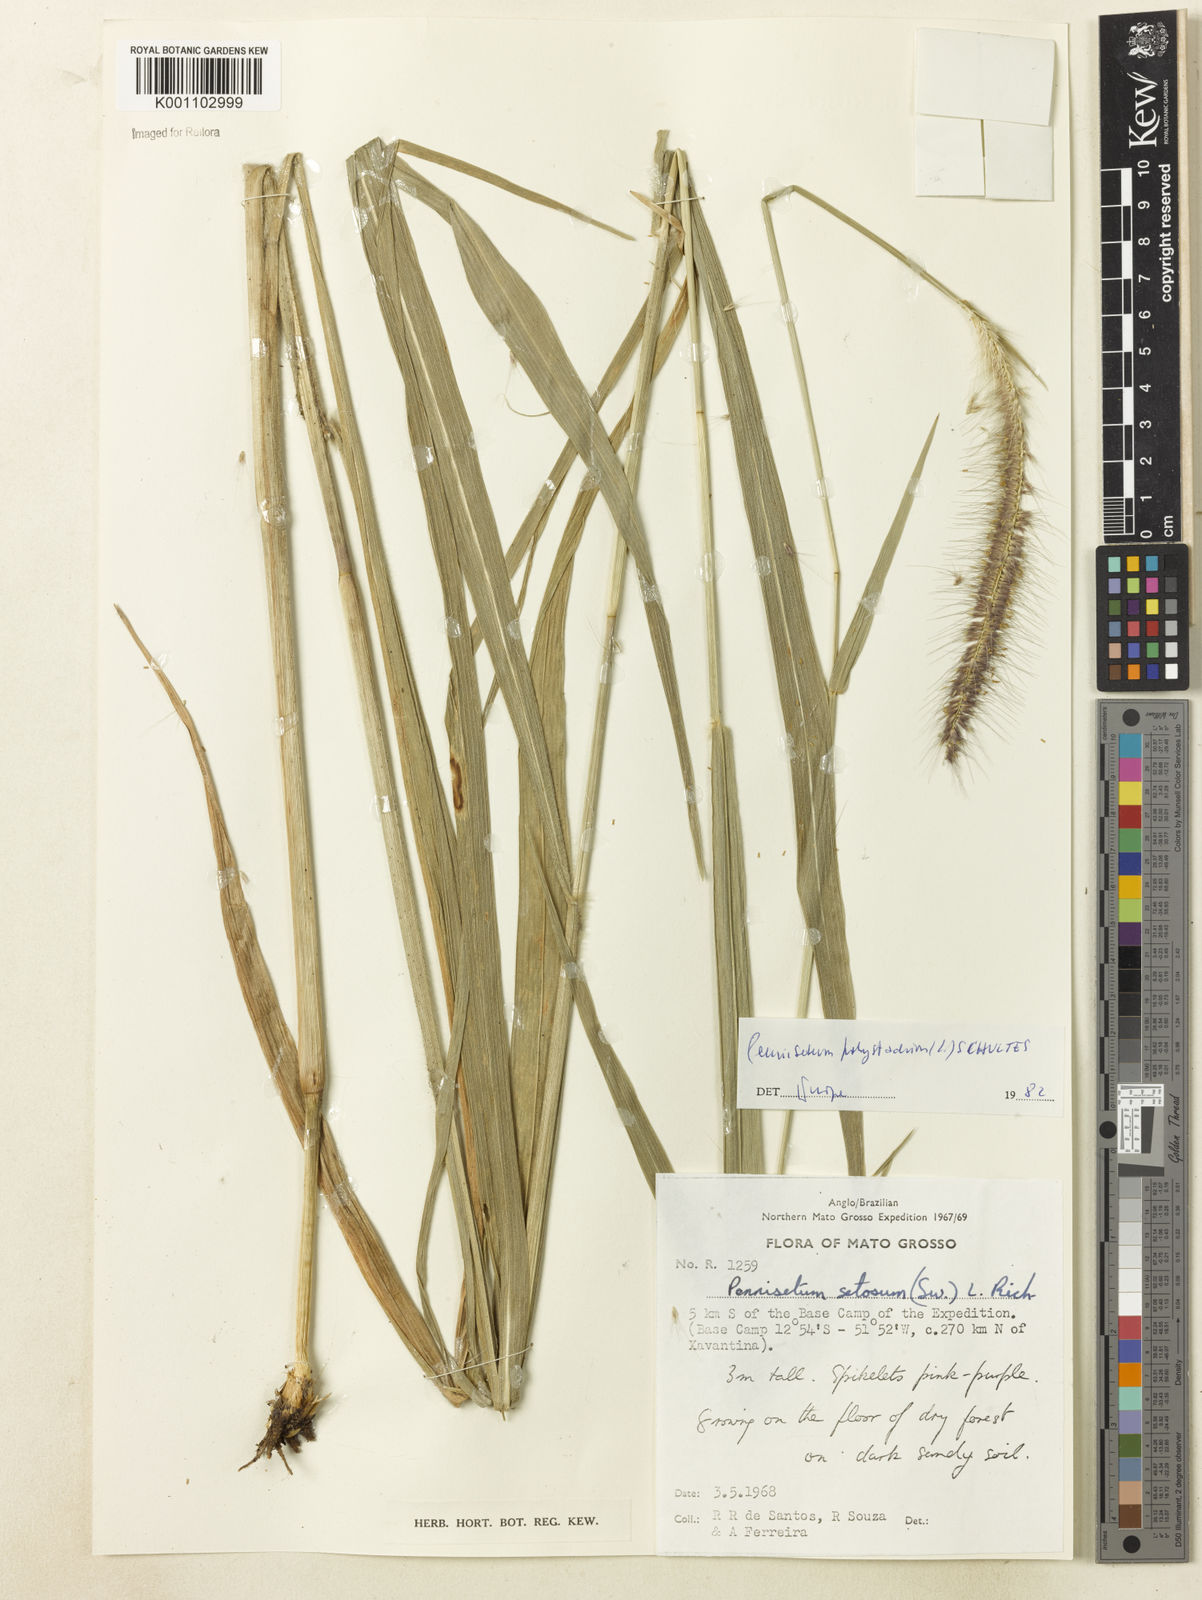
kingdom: Plantae
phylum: Tracheophyta
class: Liliopsida
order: Poales
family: Poaceae
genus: Setaria
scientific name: Setaria parviflora
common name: Knotroot bristle-grass
